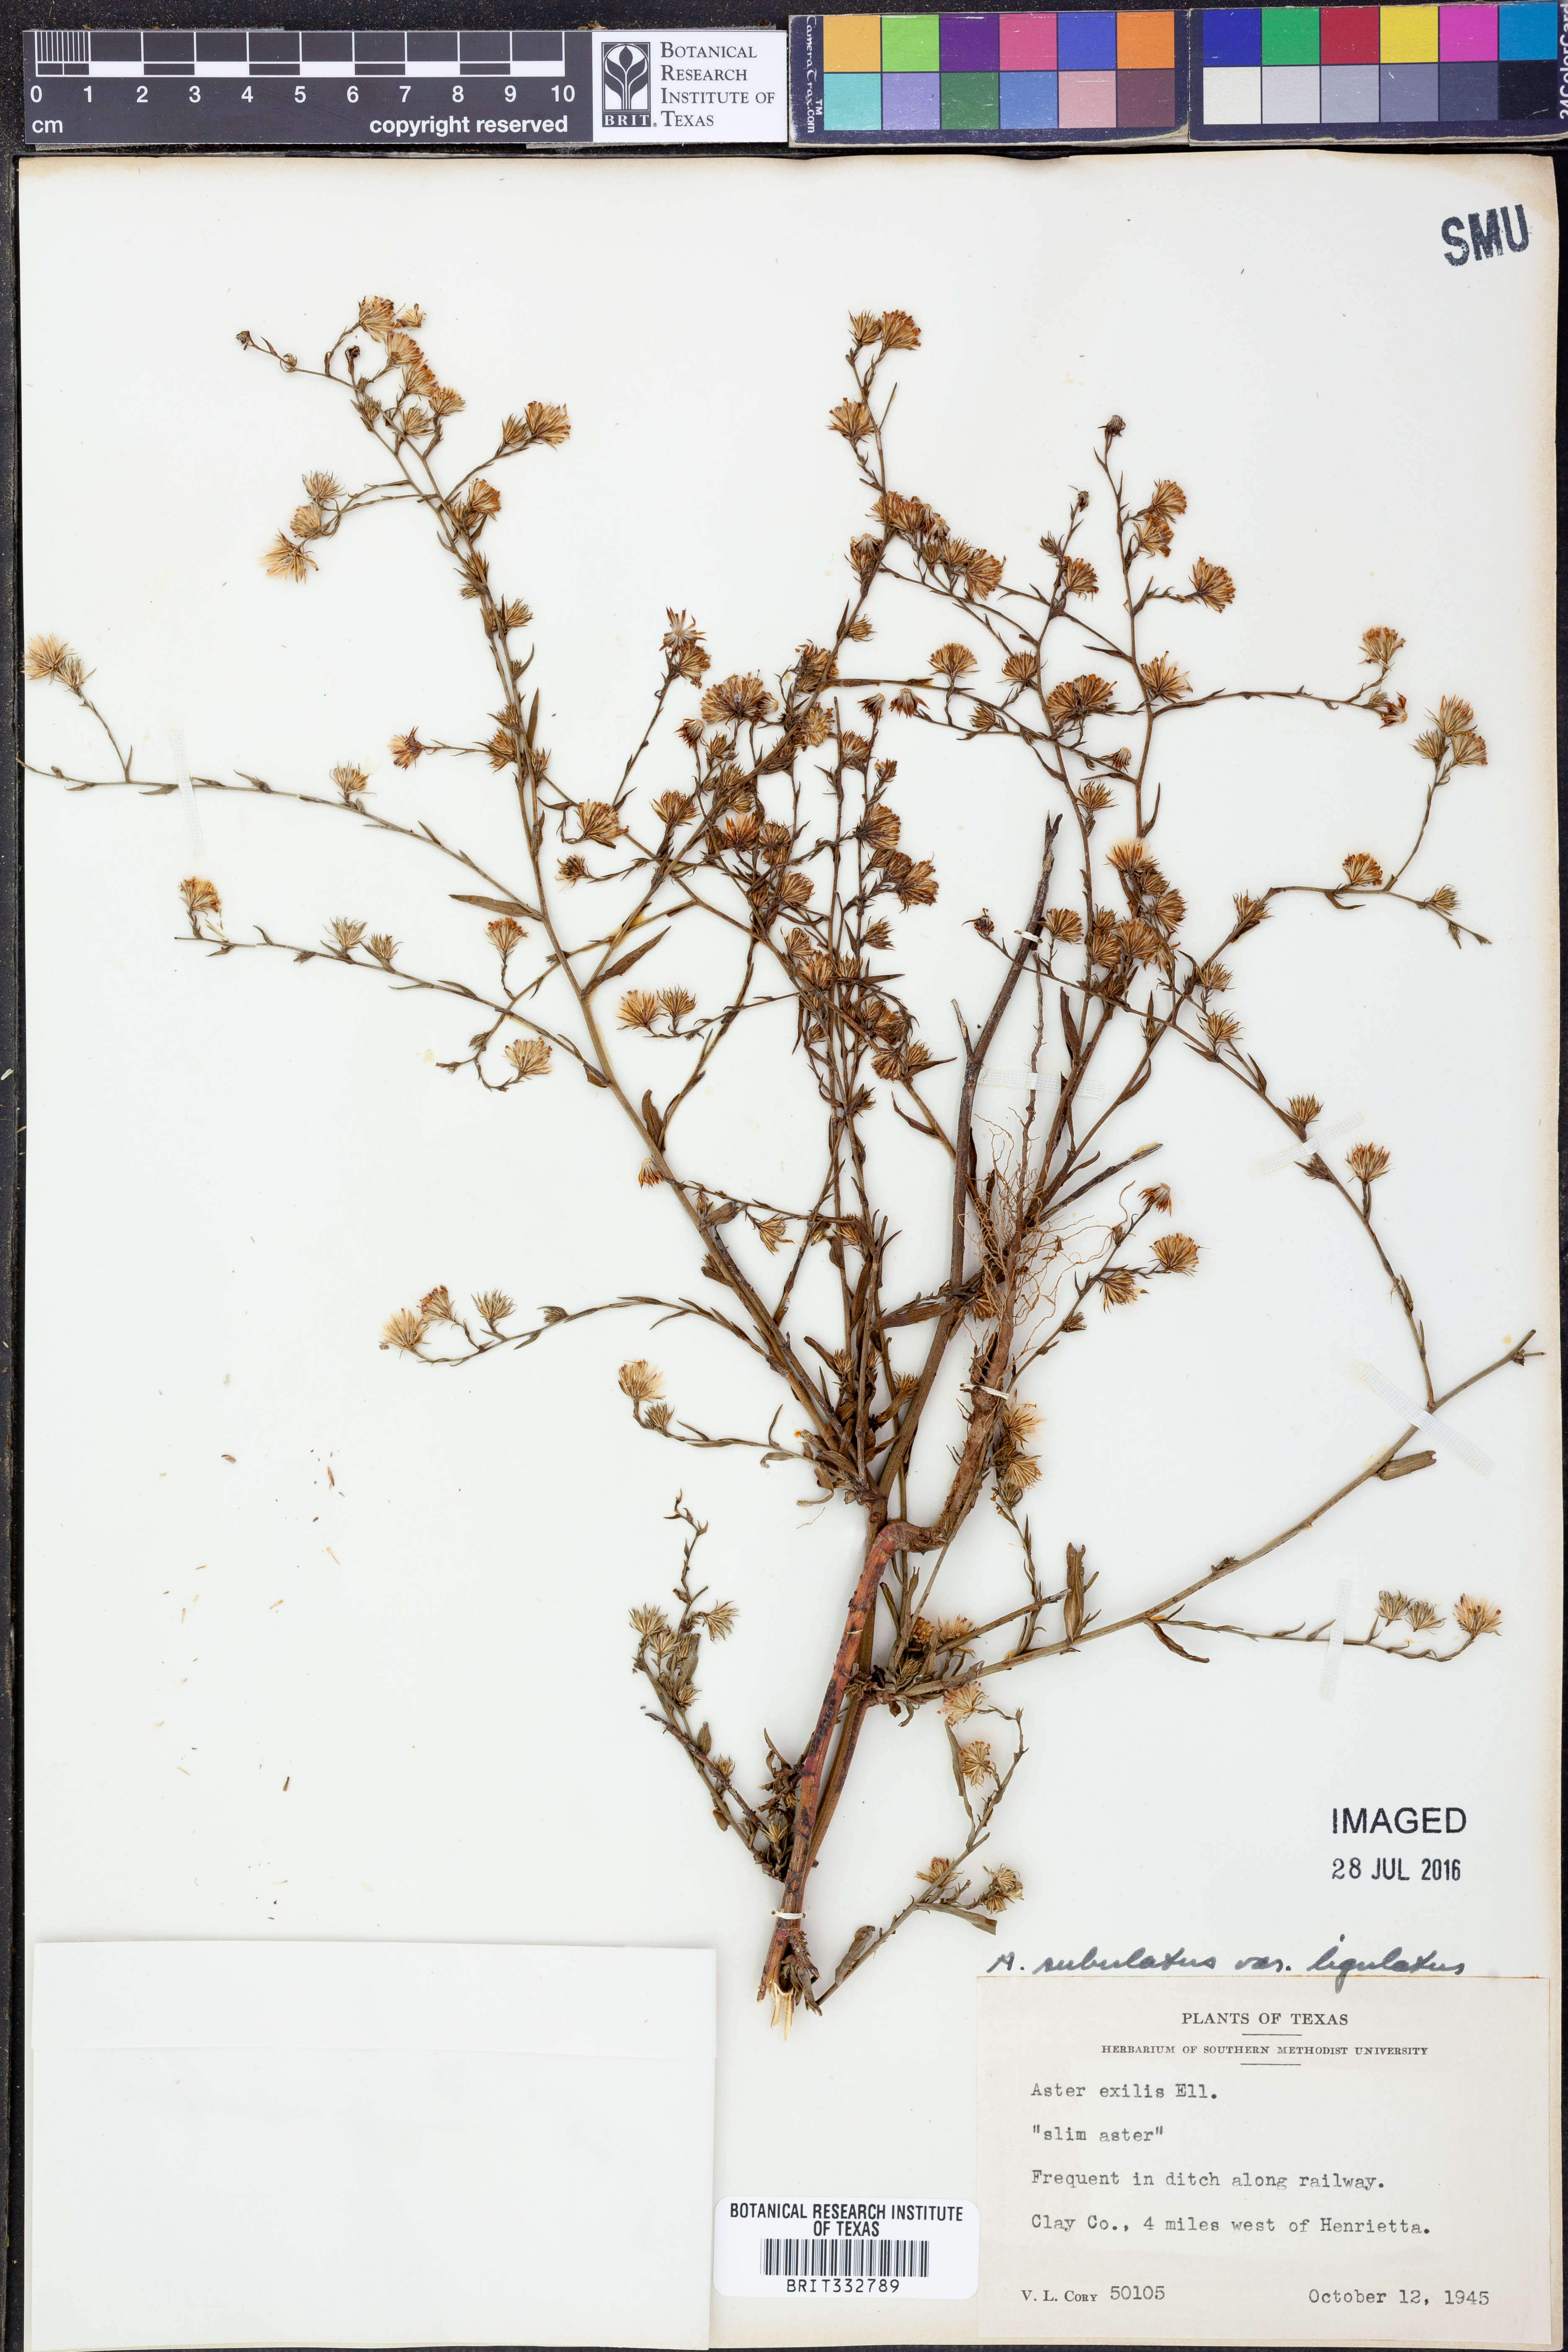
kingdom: Plantae
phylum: Tracheophyta
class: Magnoliopsida
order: Asterales
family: Asteraceae
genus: Symphyotrichum
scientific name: Symphyotrichum divaricatum
